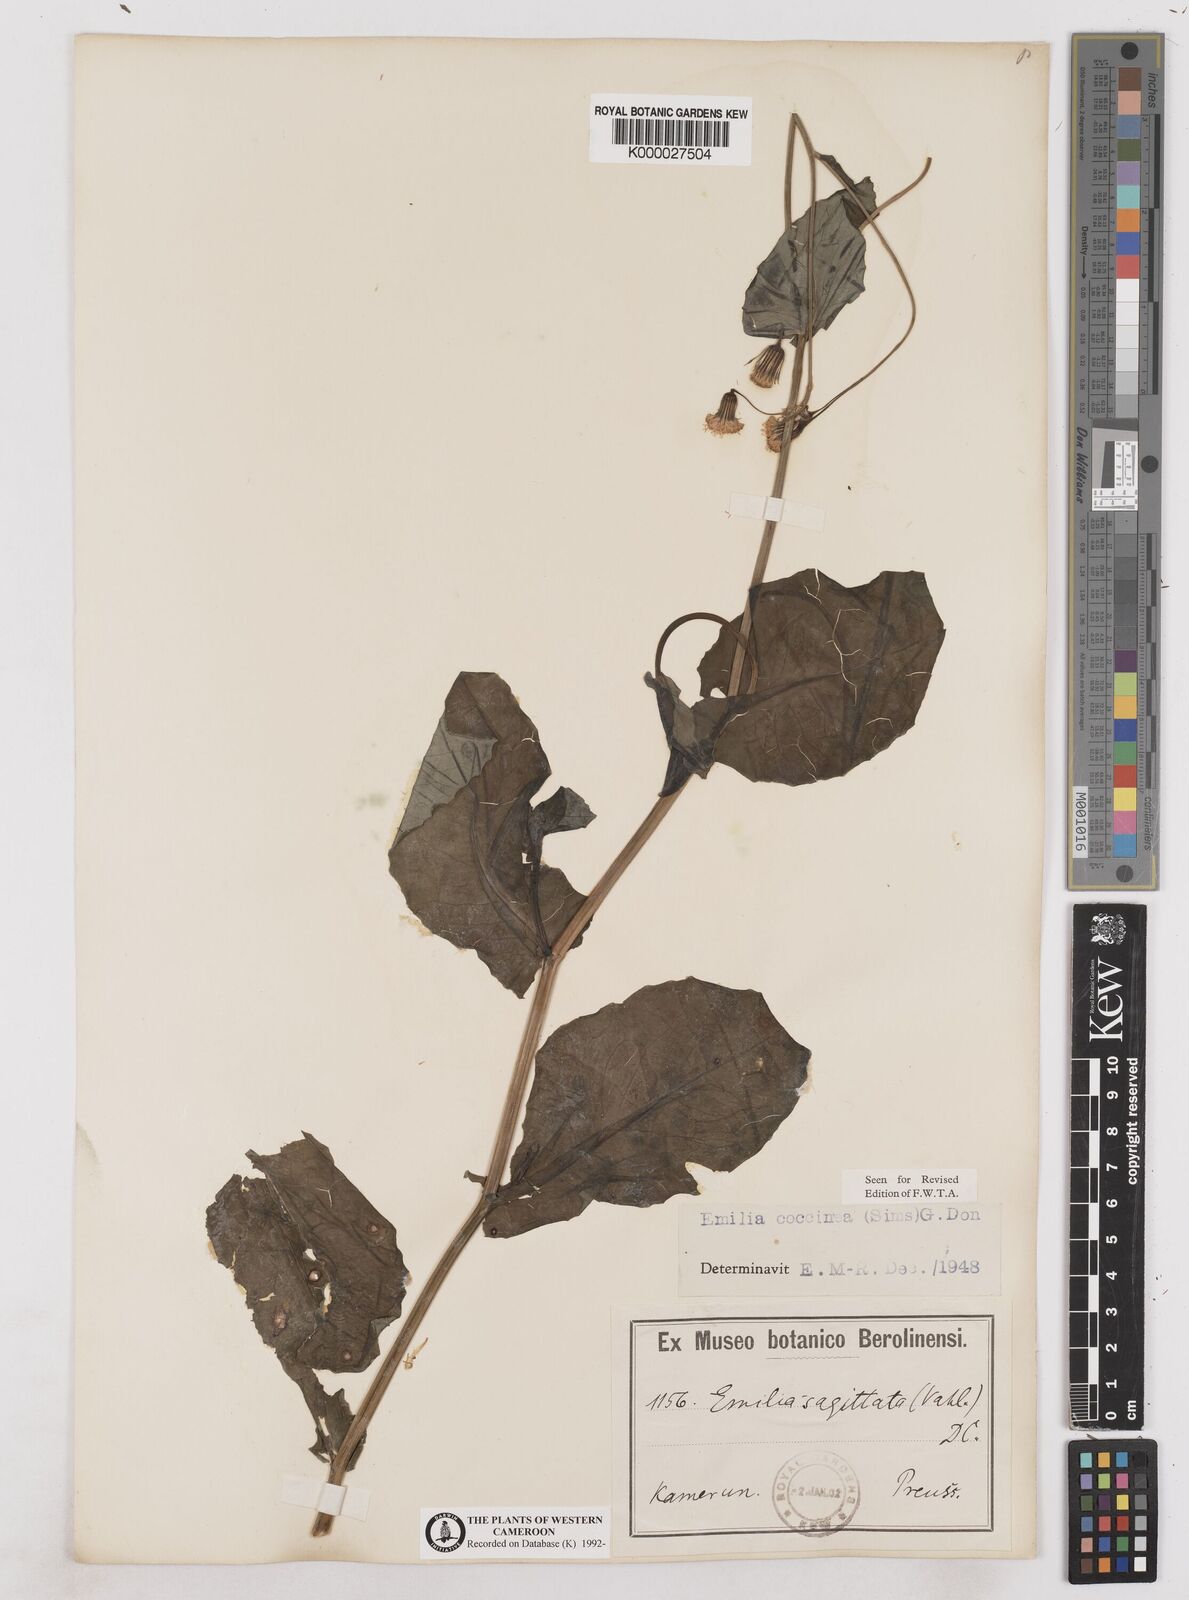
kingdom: Plantae
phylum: Tracheophyta
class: Magnoliopsida
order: Asterales
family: Asteraceae
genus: Emilia
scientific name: Emilia lisowskiana
